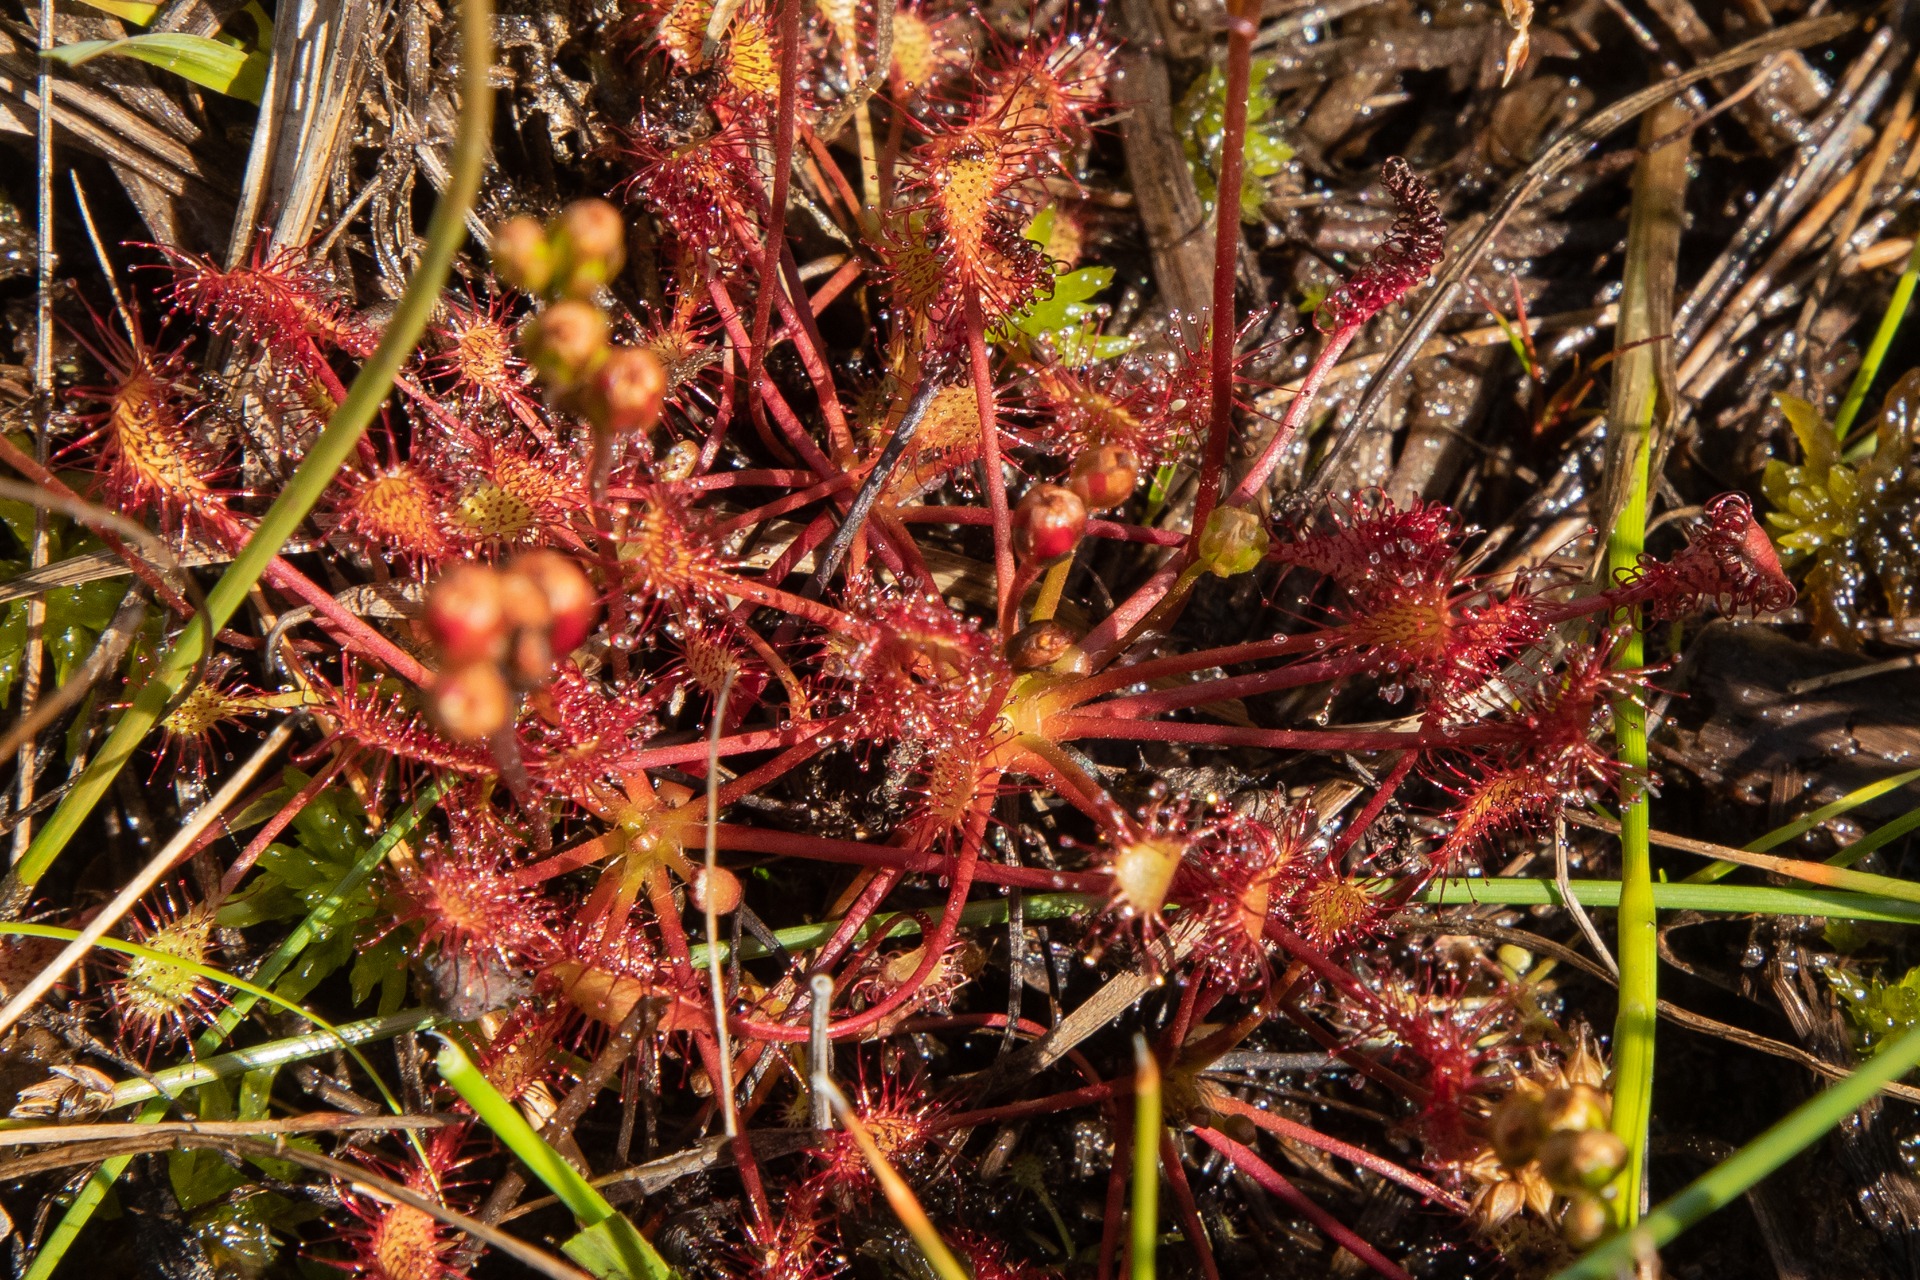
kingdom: Plantae
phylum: Tracheophyta
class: Magnoliopsida
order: Caryophyllales
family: Droseraceae
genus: Drosera
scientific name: Drosera intermedia
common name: Liden soldug
